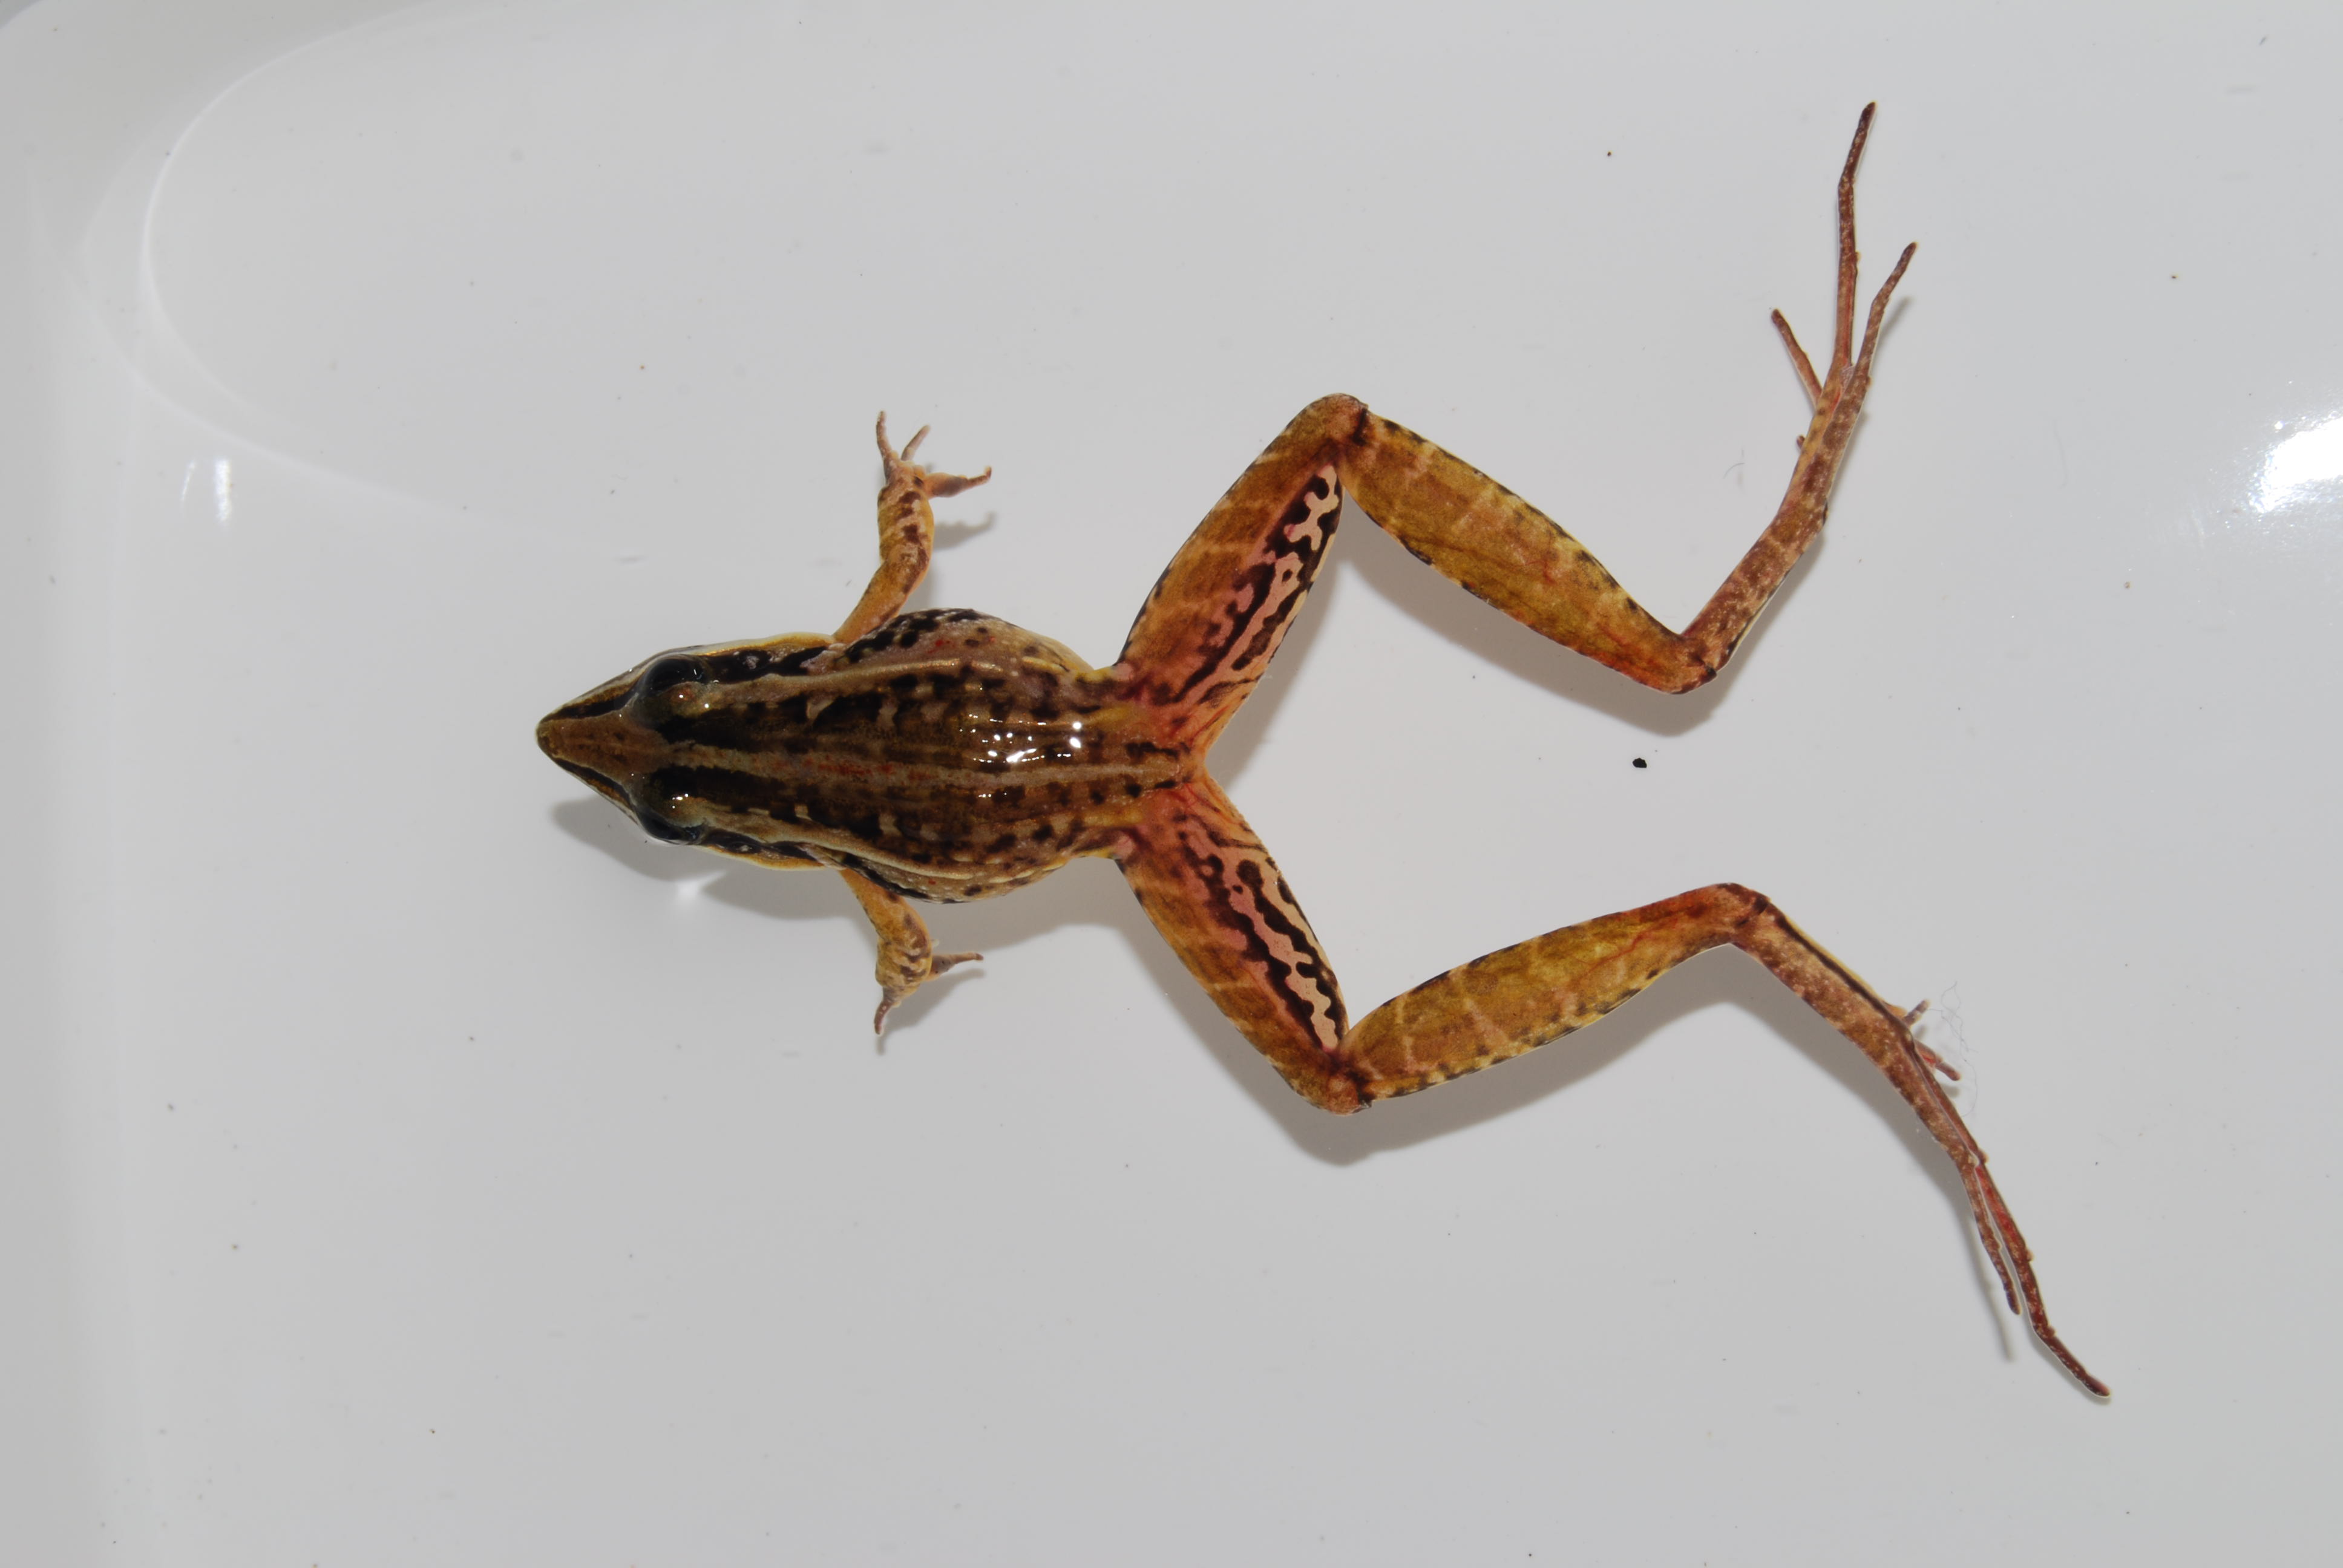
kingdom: Animalia
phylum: Chordata
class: Amphibia
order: Anura
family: Ptychadenidae
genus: Ptychadena
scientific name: Ptychadena
